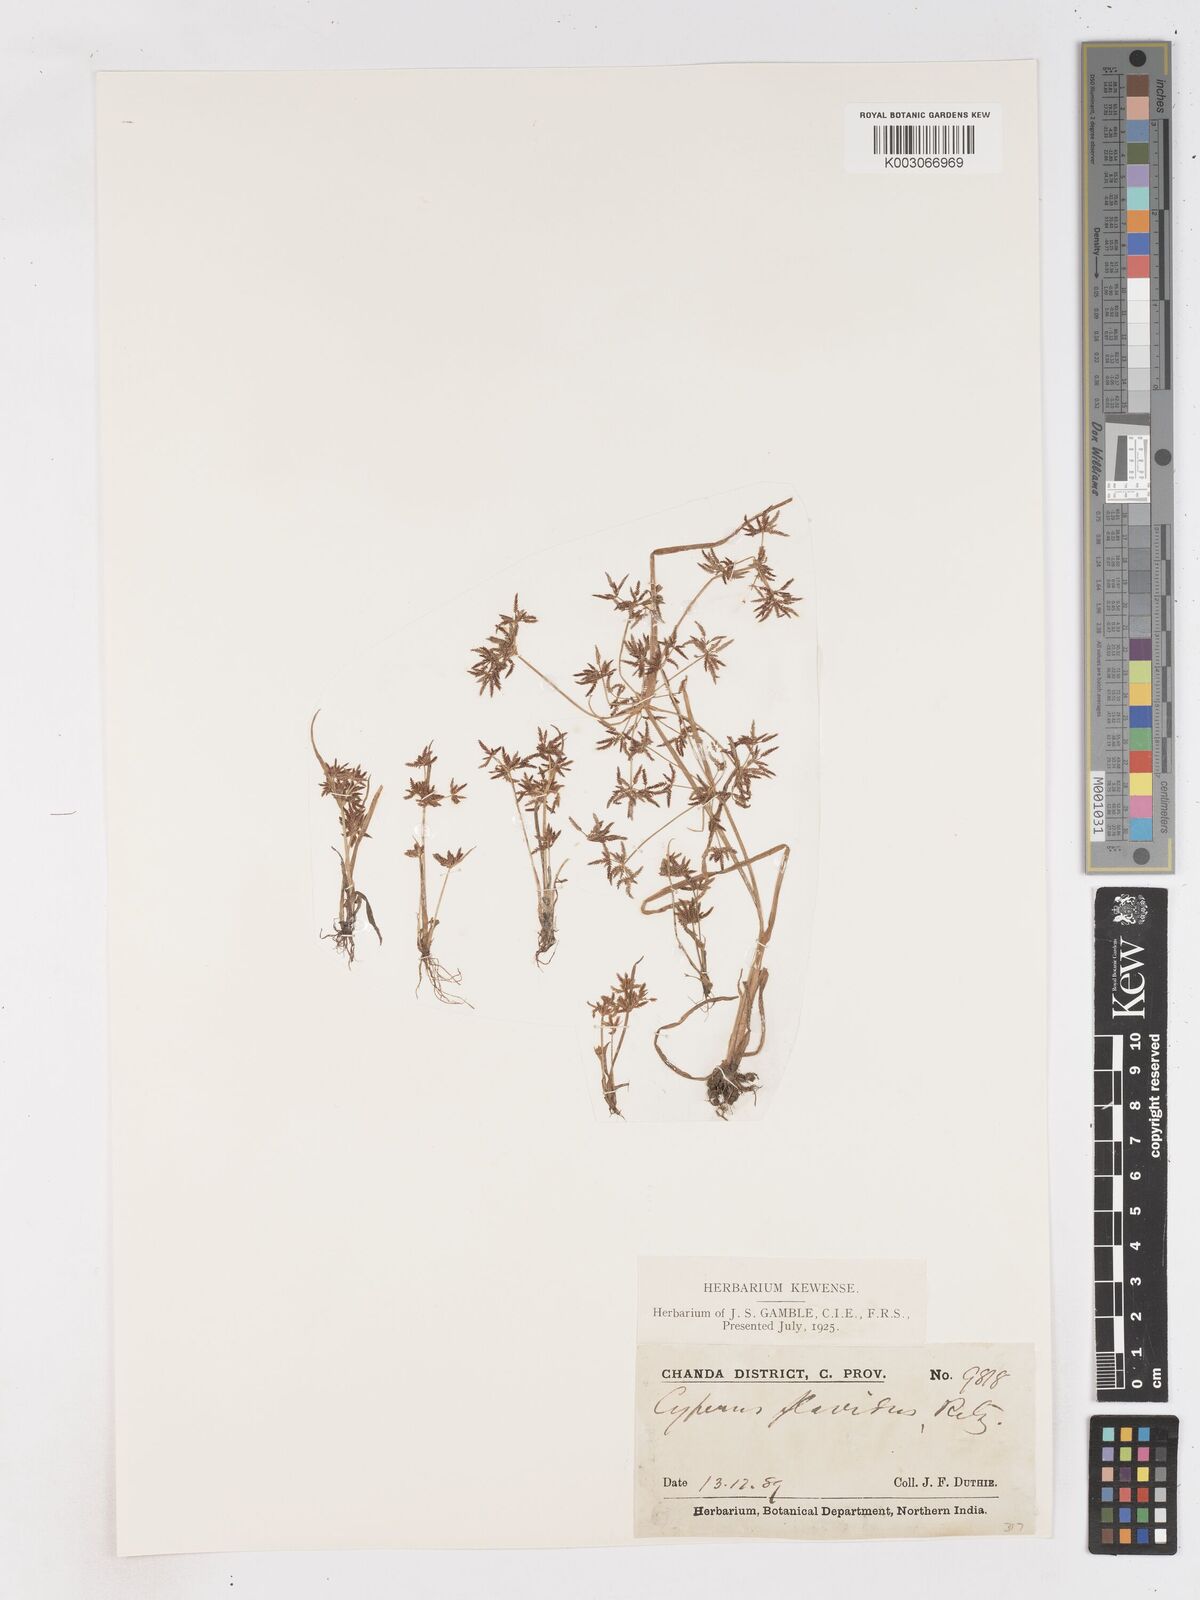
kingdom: Plantae
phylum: Tracheophyta
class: Liliopsida
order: Poales
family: Cyperaceae
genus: Cyperus
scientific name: Cyperus tenuispica
